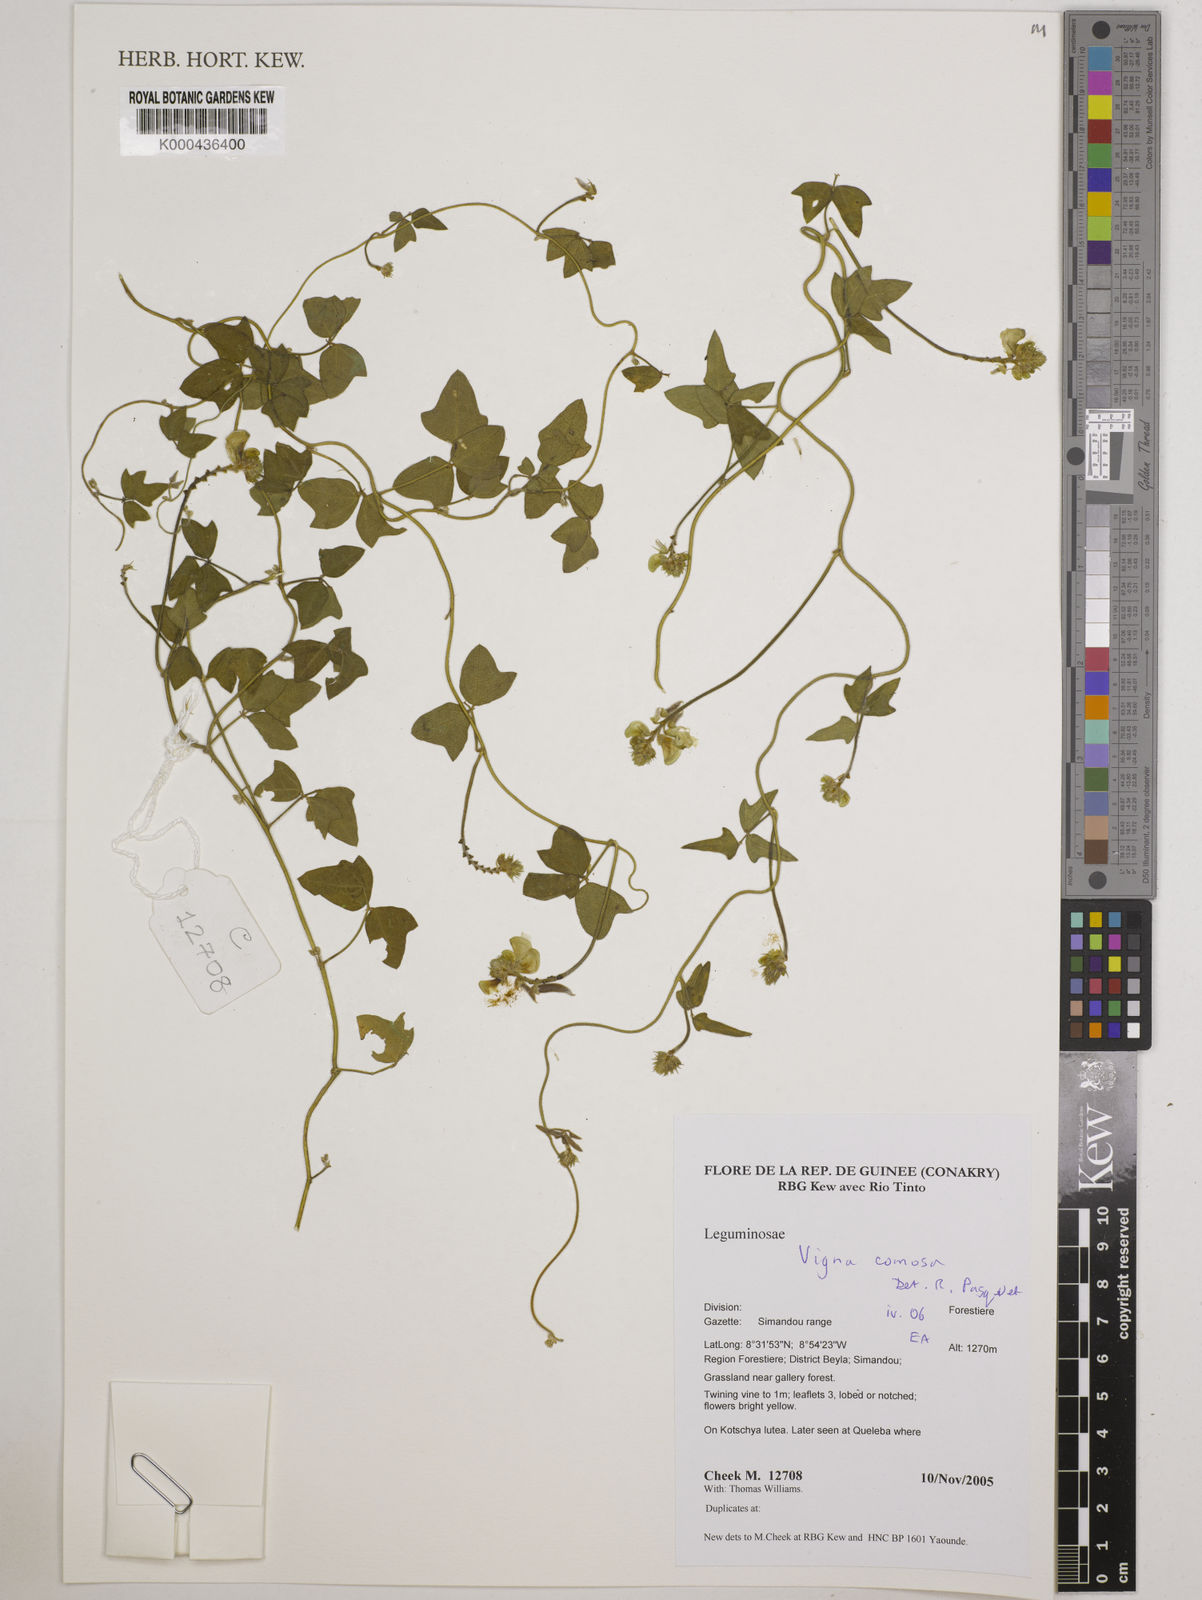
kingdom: Plantae
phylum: Tracheophyta
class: Magnoliopsida
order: Fabales
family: Fabaceae
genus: Vigna
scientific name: Vigna comosa
